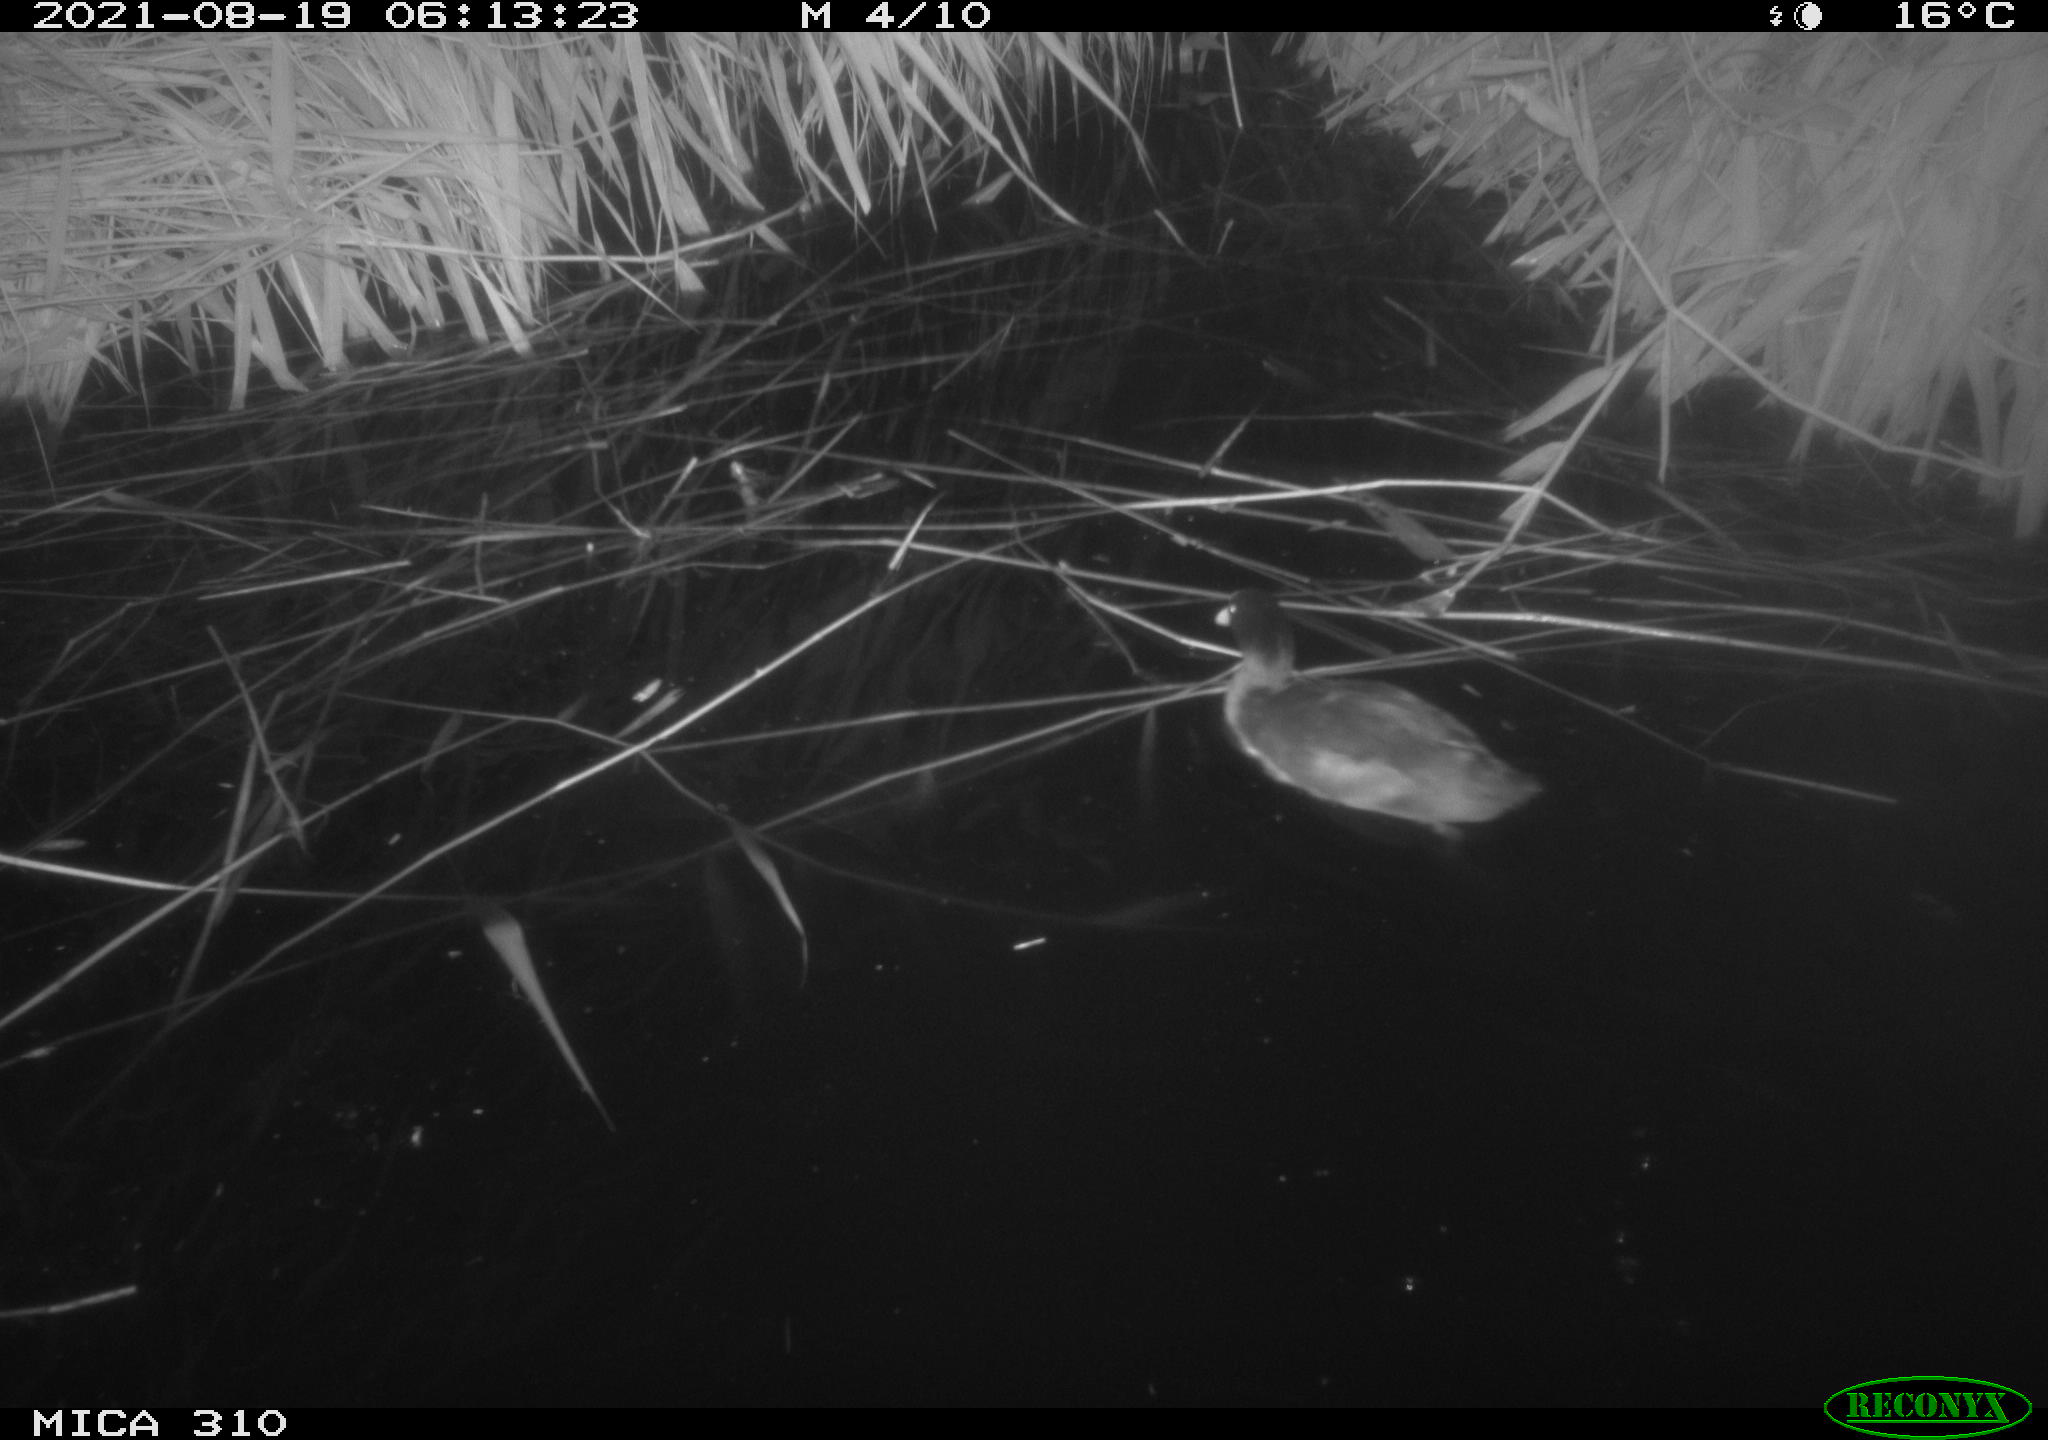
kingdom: Animalia
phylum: Chordata
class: Aves
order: Gruiformes
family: Rallidae
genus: Fulica
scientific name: Fulica atra
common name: Eurasian coot
